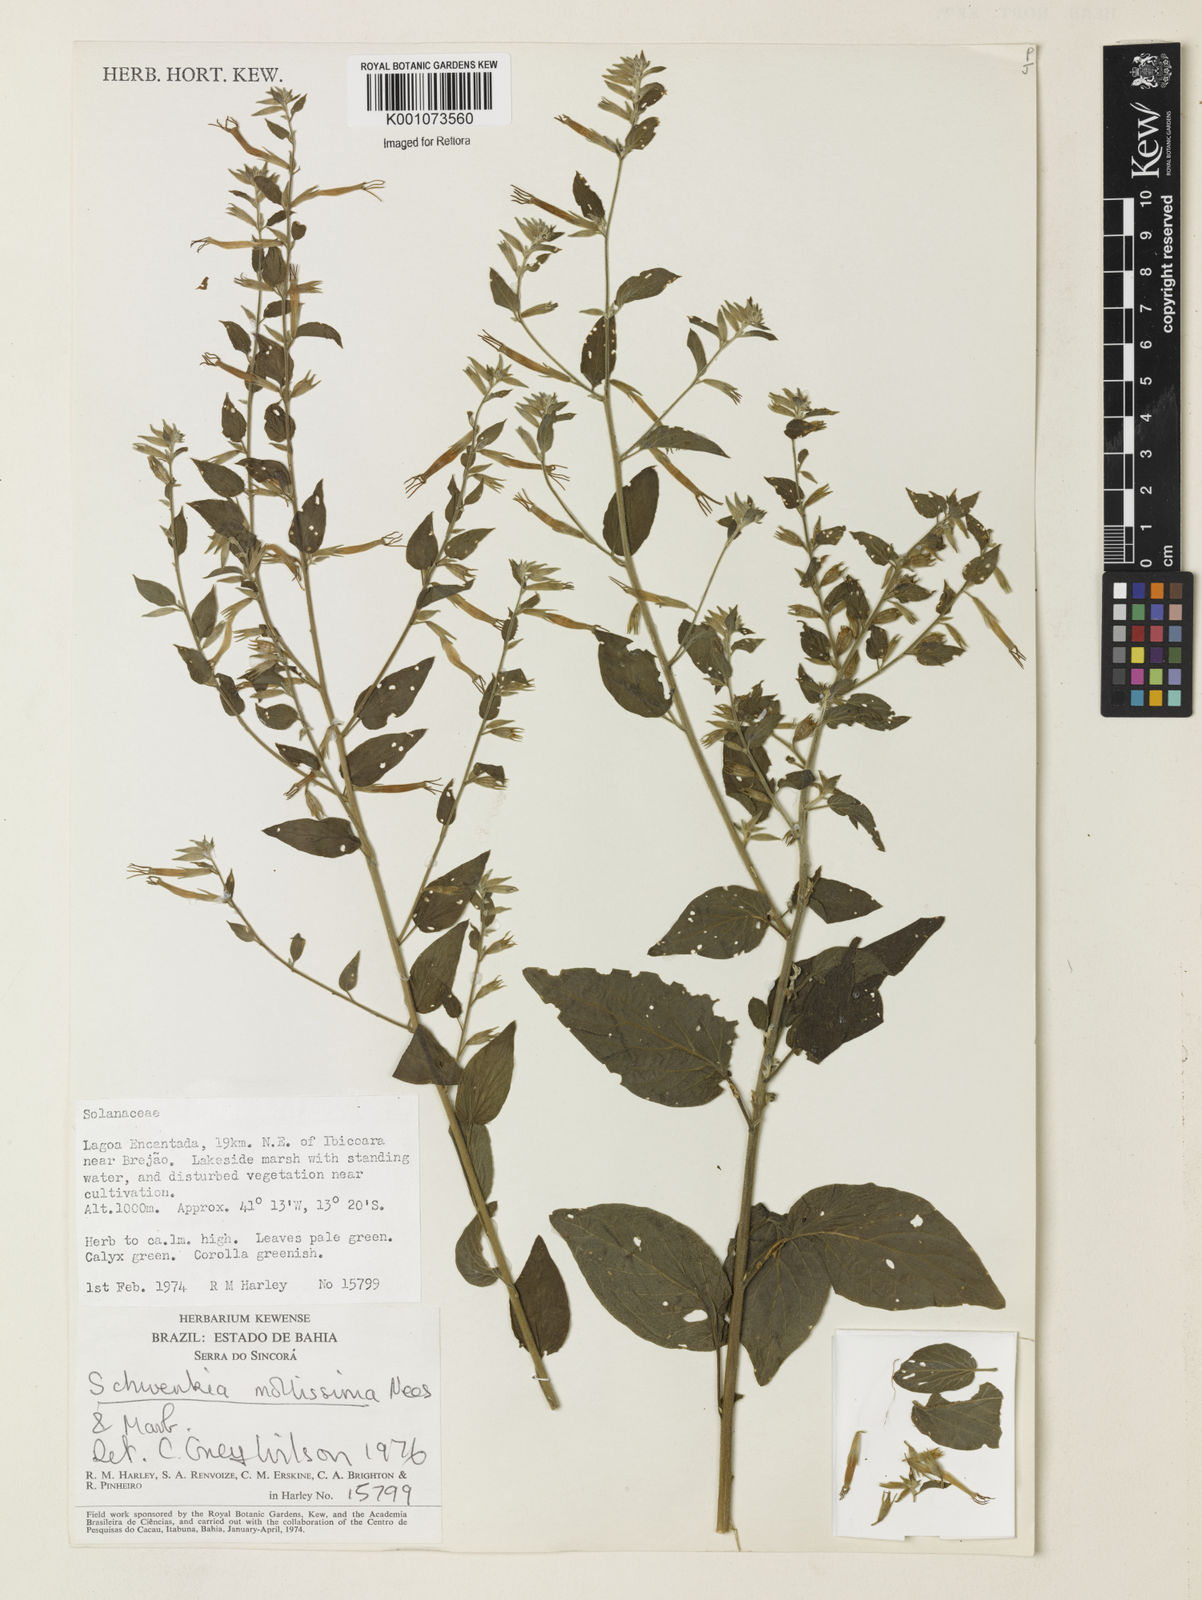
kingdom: Plantae
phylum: Tracheophyta
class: Magnoliopsida
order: Solanales
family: Solanaceae
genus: Schwenckia
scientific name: Schwenckia mollissima
